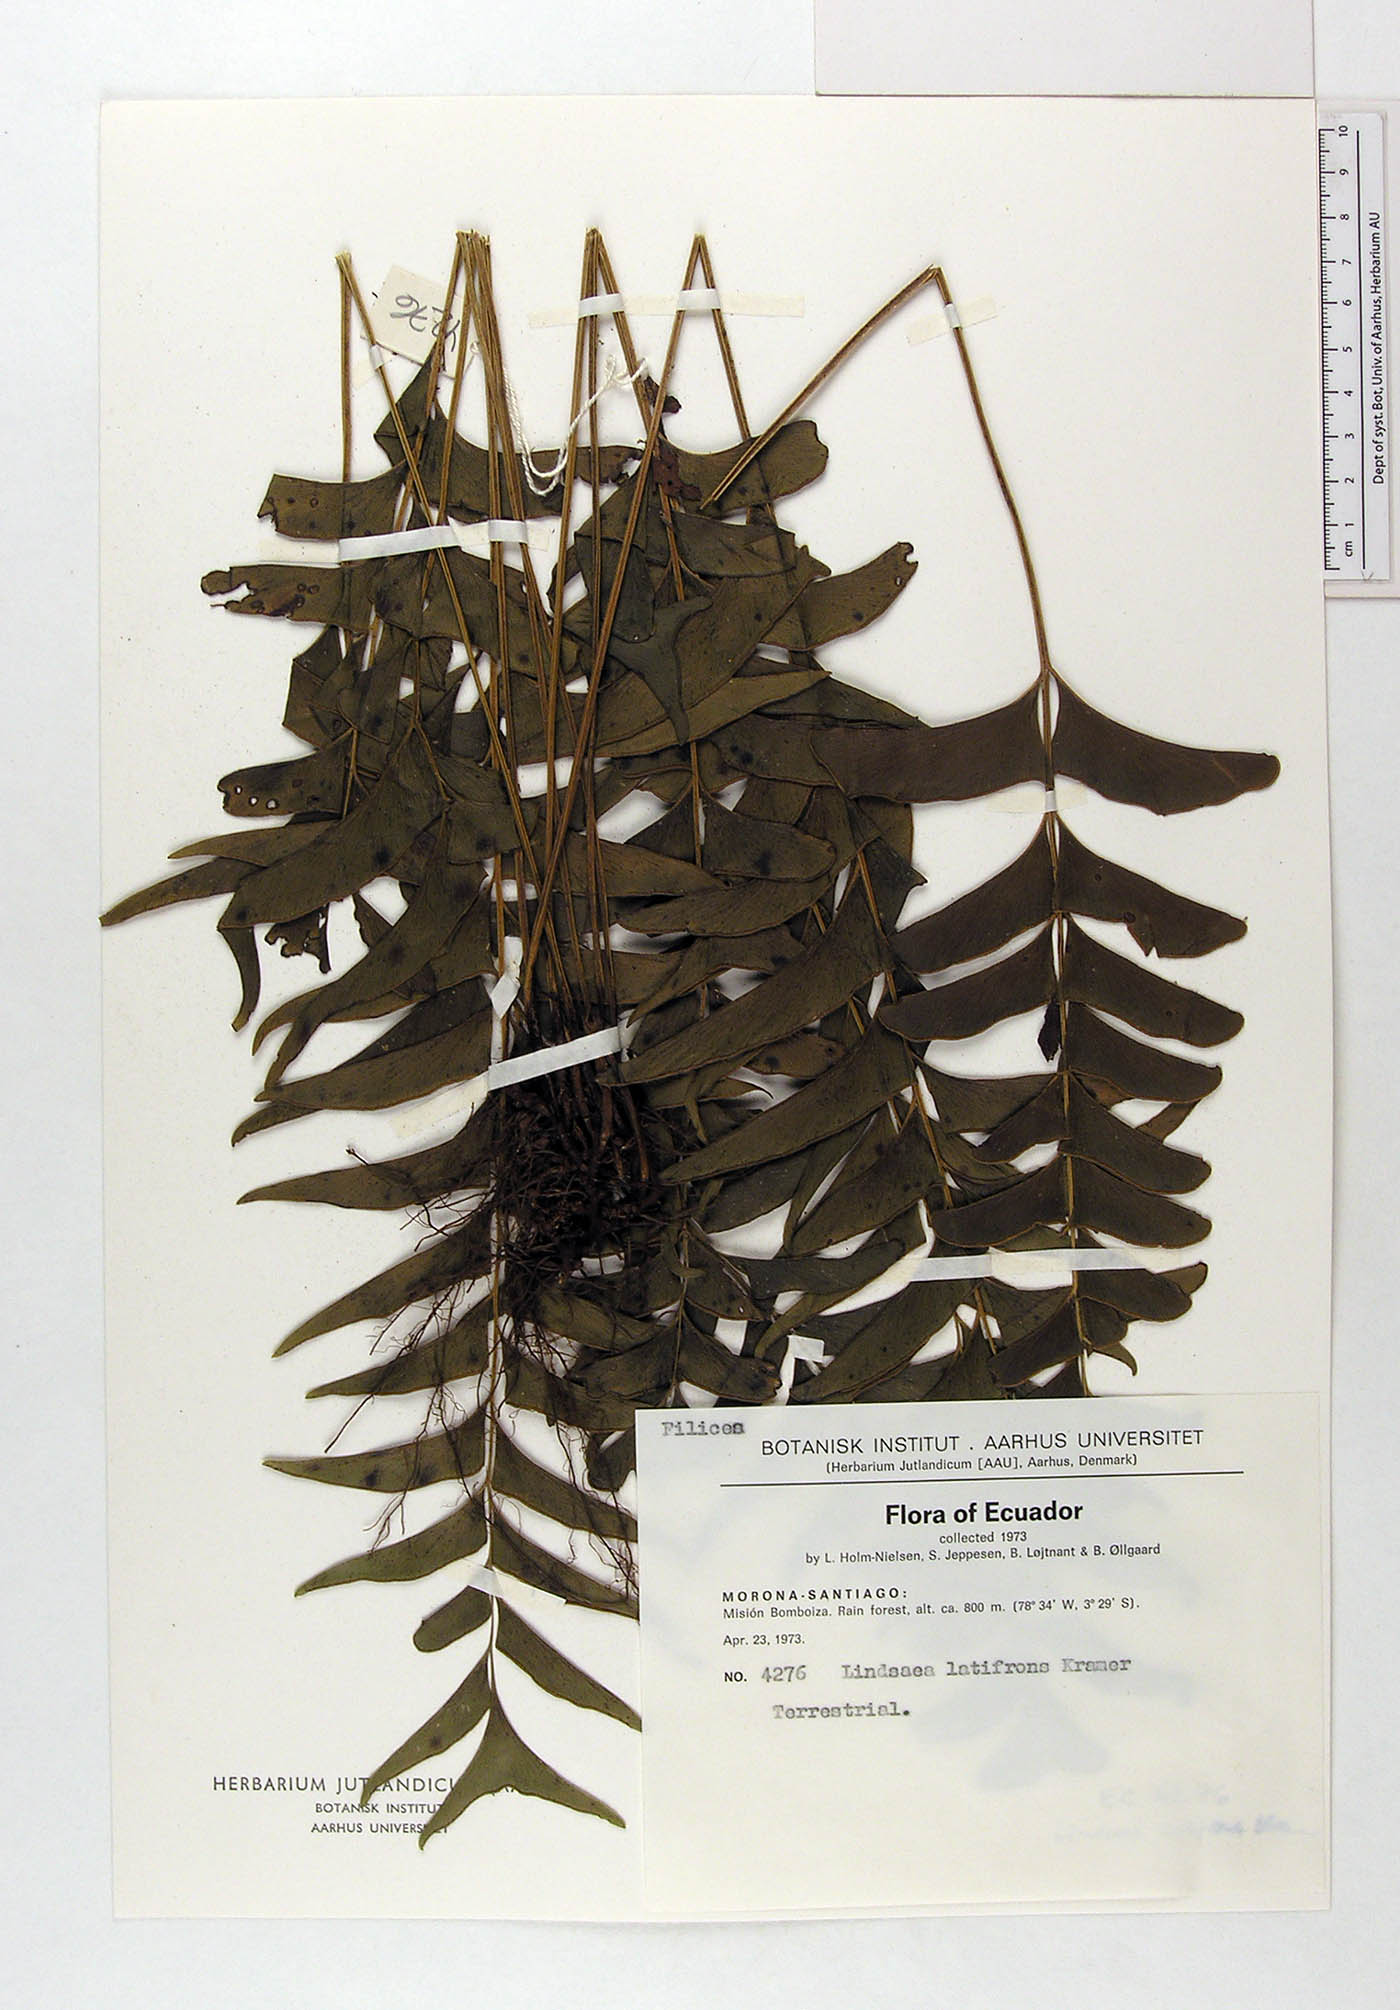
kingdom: Plantae
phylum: Tracheophyta
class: Polypodiopsida
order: Polypodiales
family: Lindsaeaceae
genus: Lindsaea
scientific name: Lindsaea latifrons
